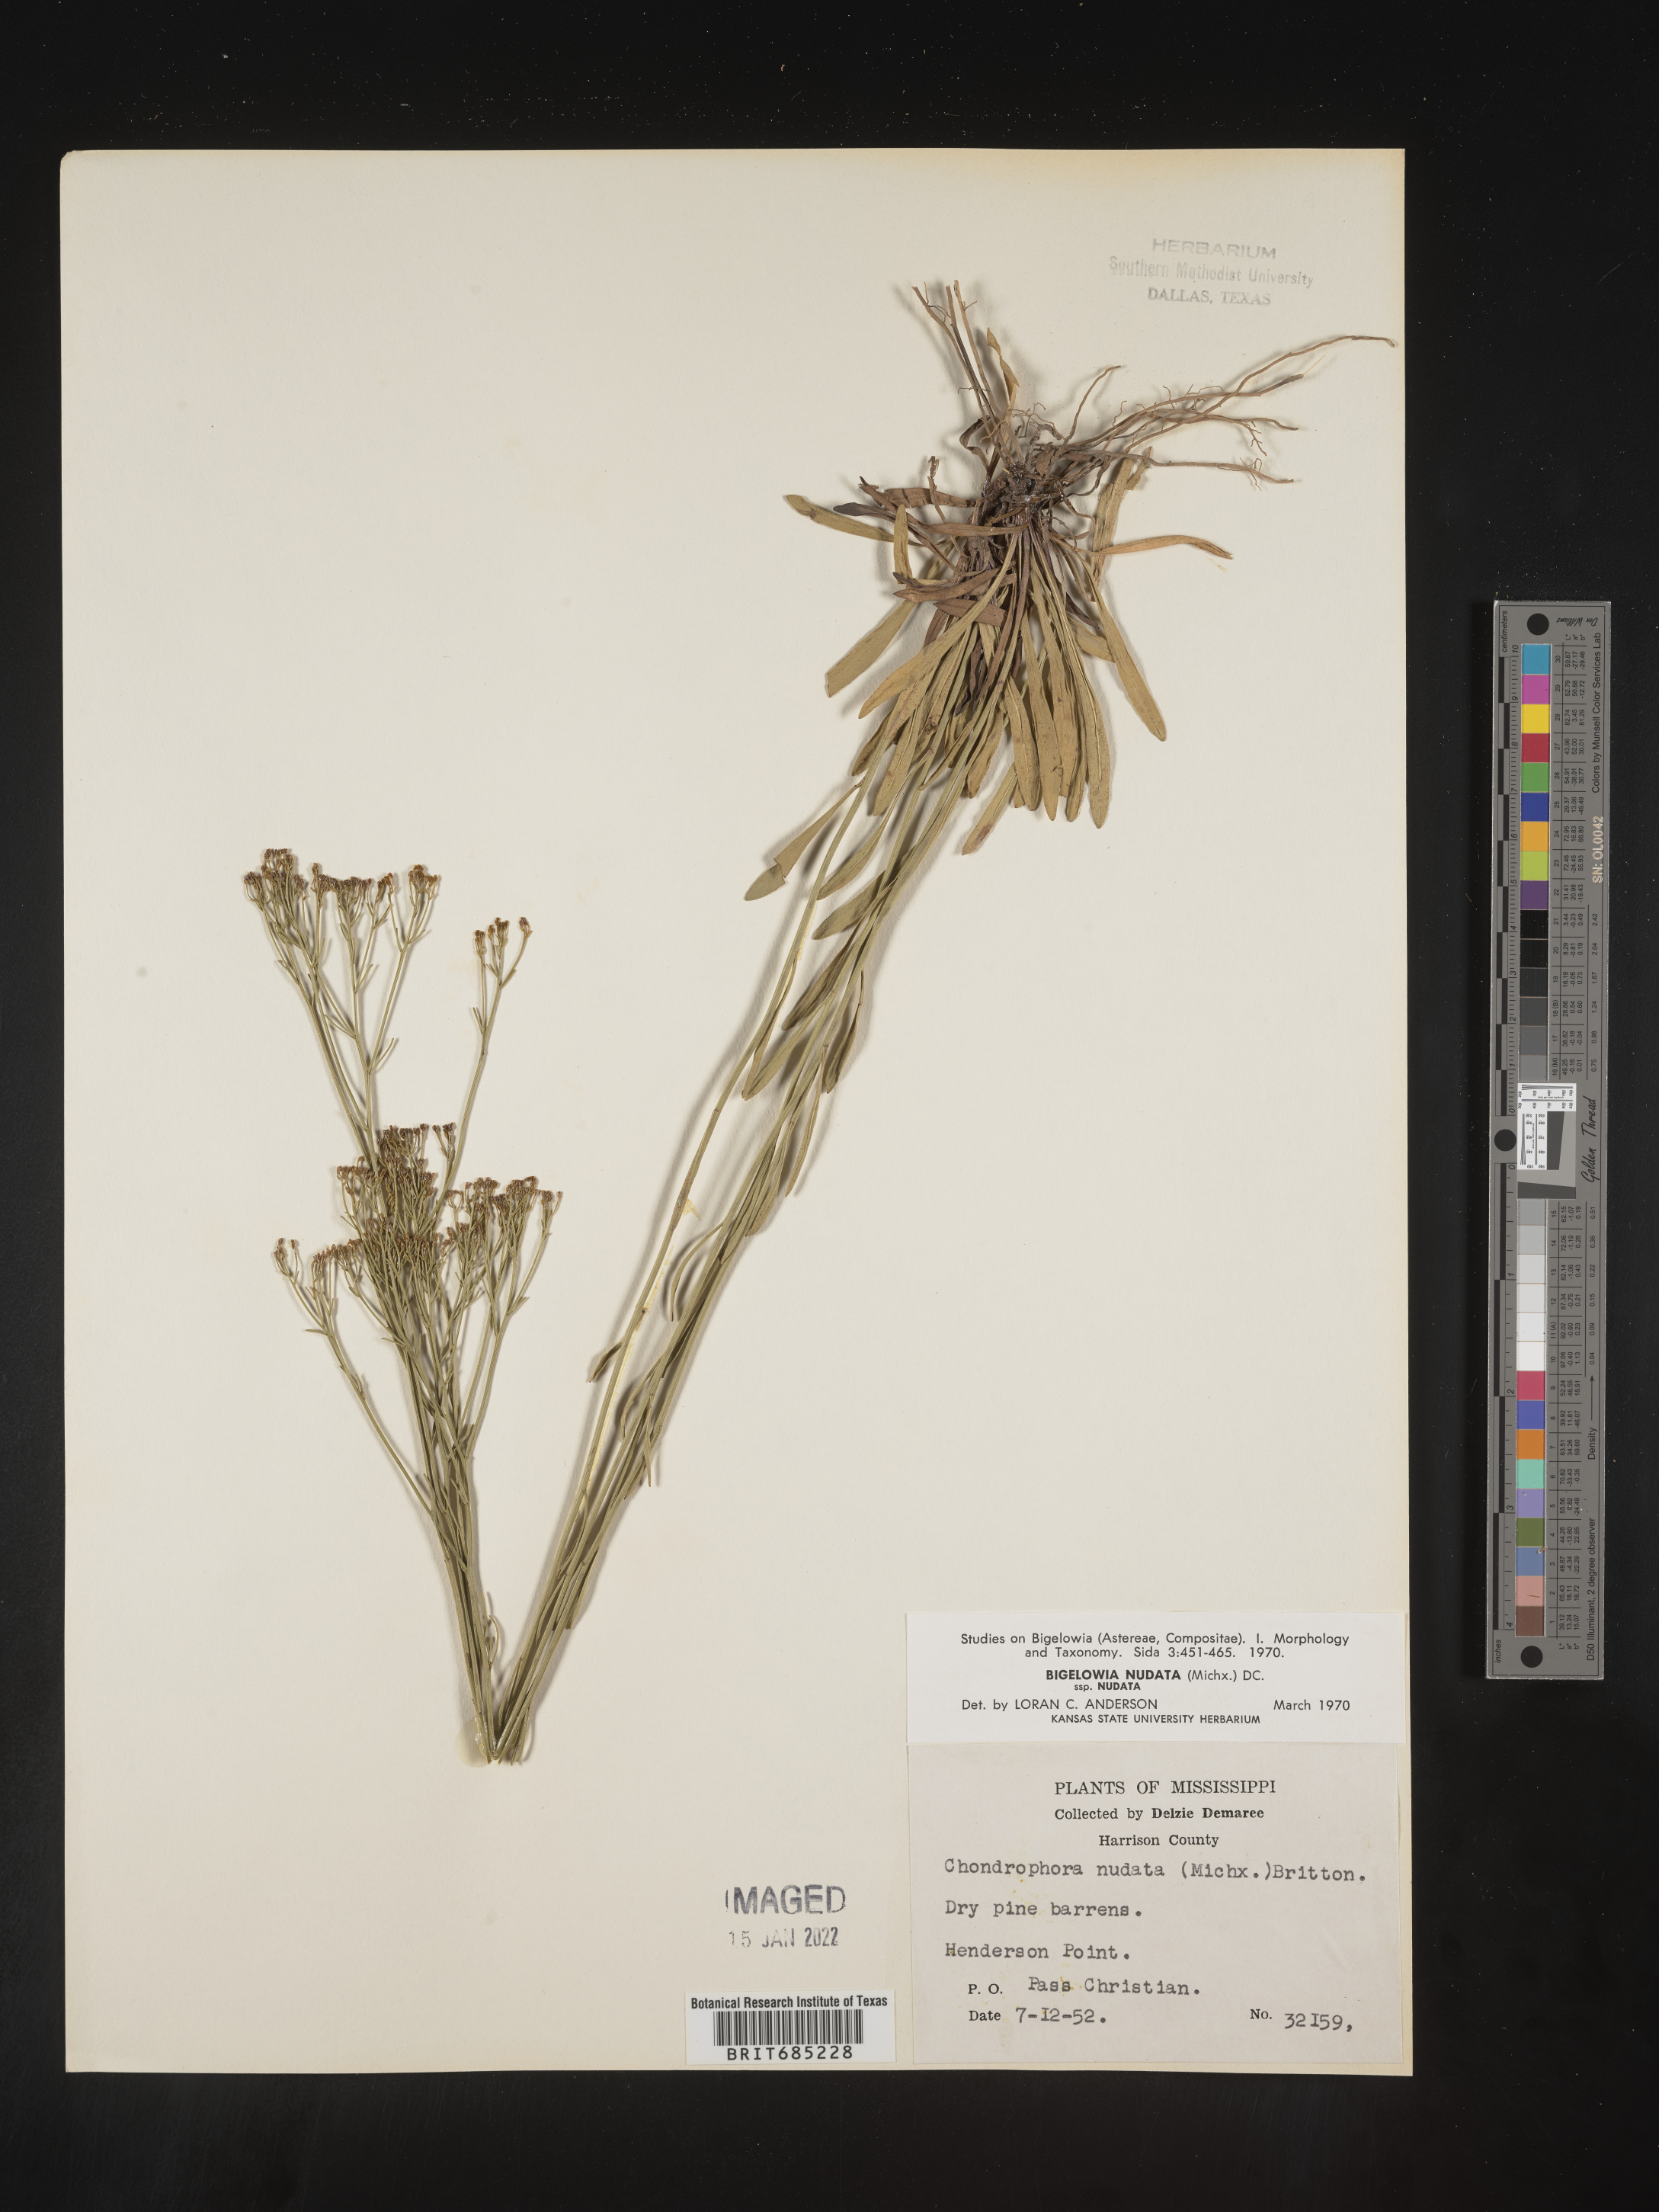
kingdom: Plantae
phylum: Tracheophyta
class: Magnoliopsida
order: Asterales
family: Asteraceae
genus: Bigelowia
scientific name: Bigelowia nudata
